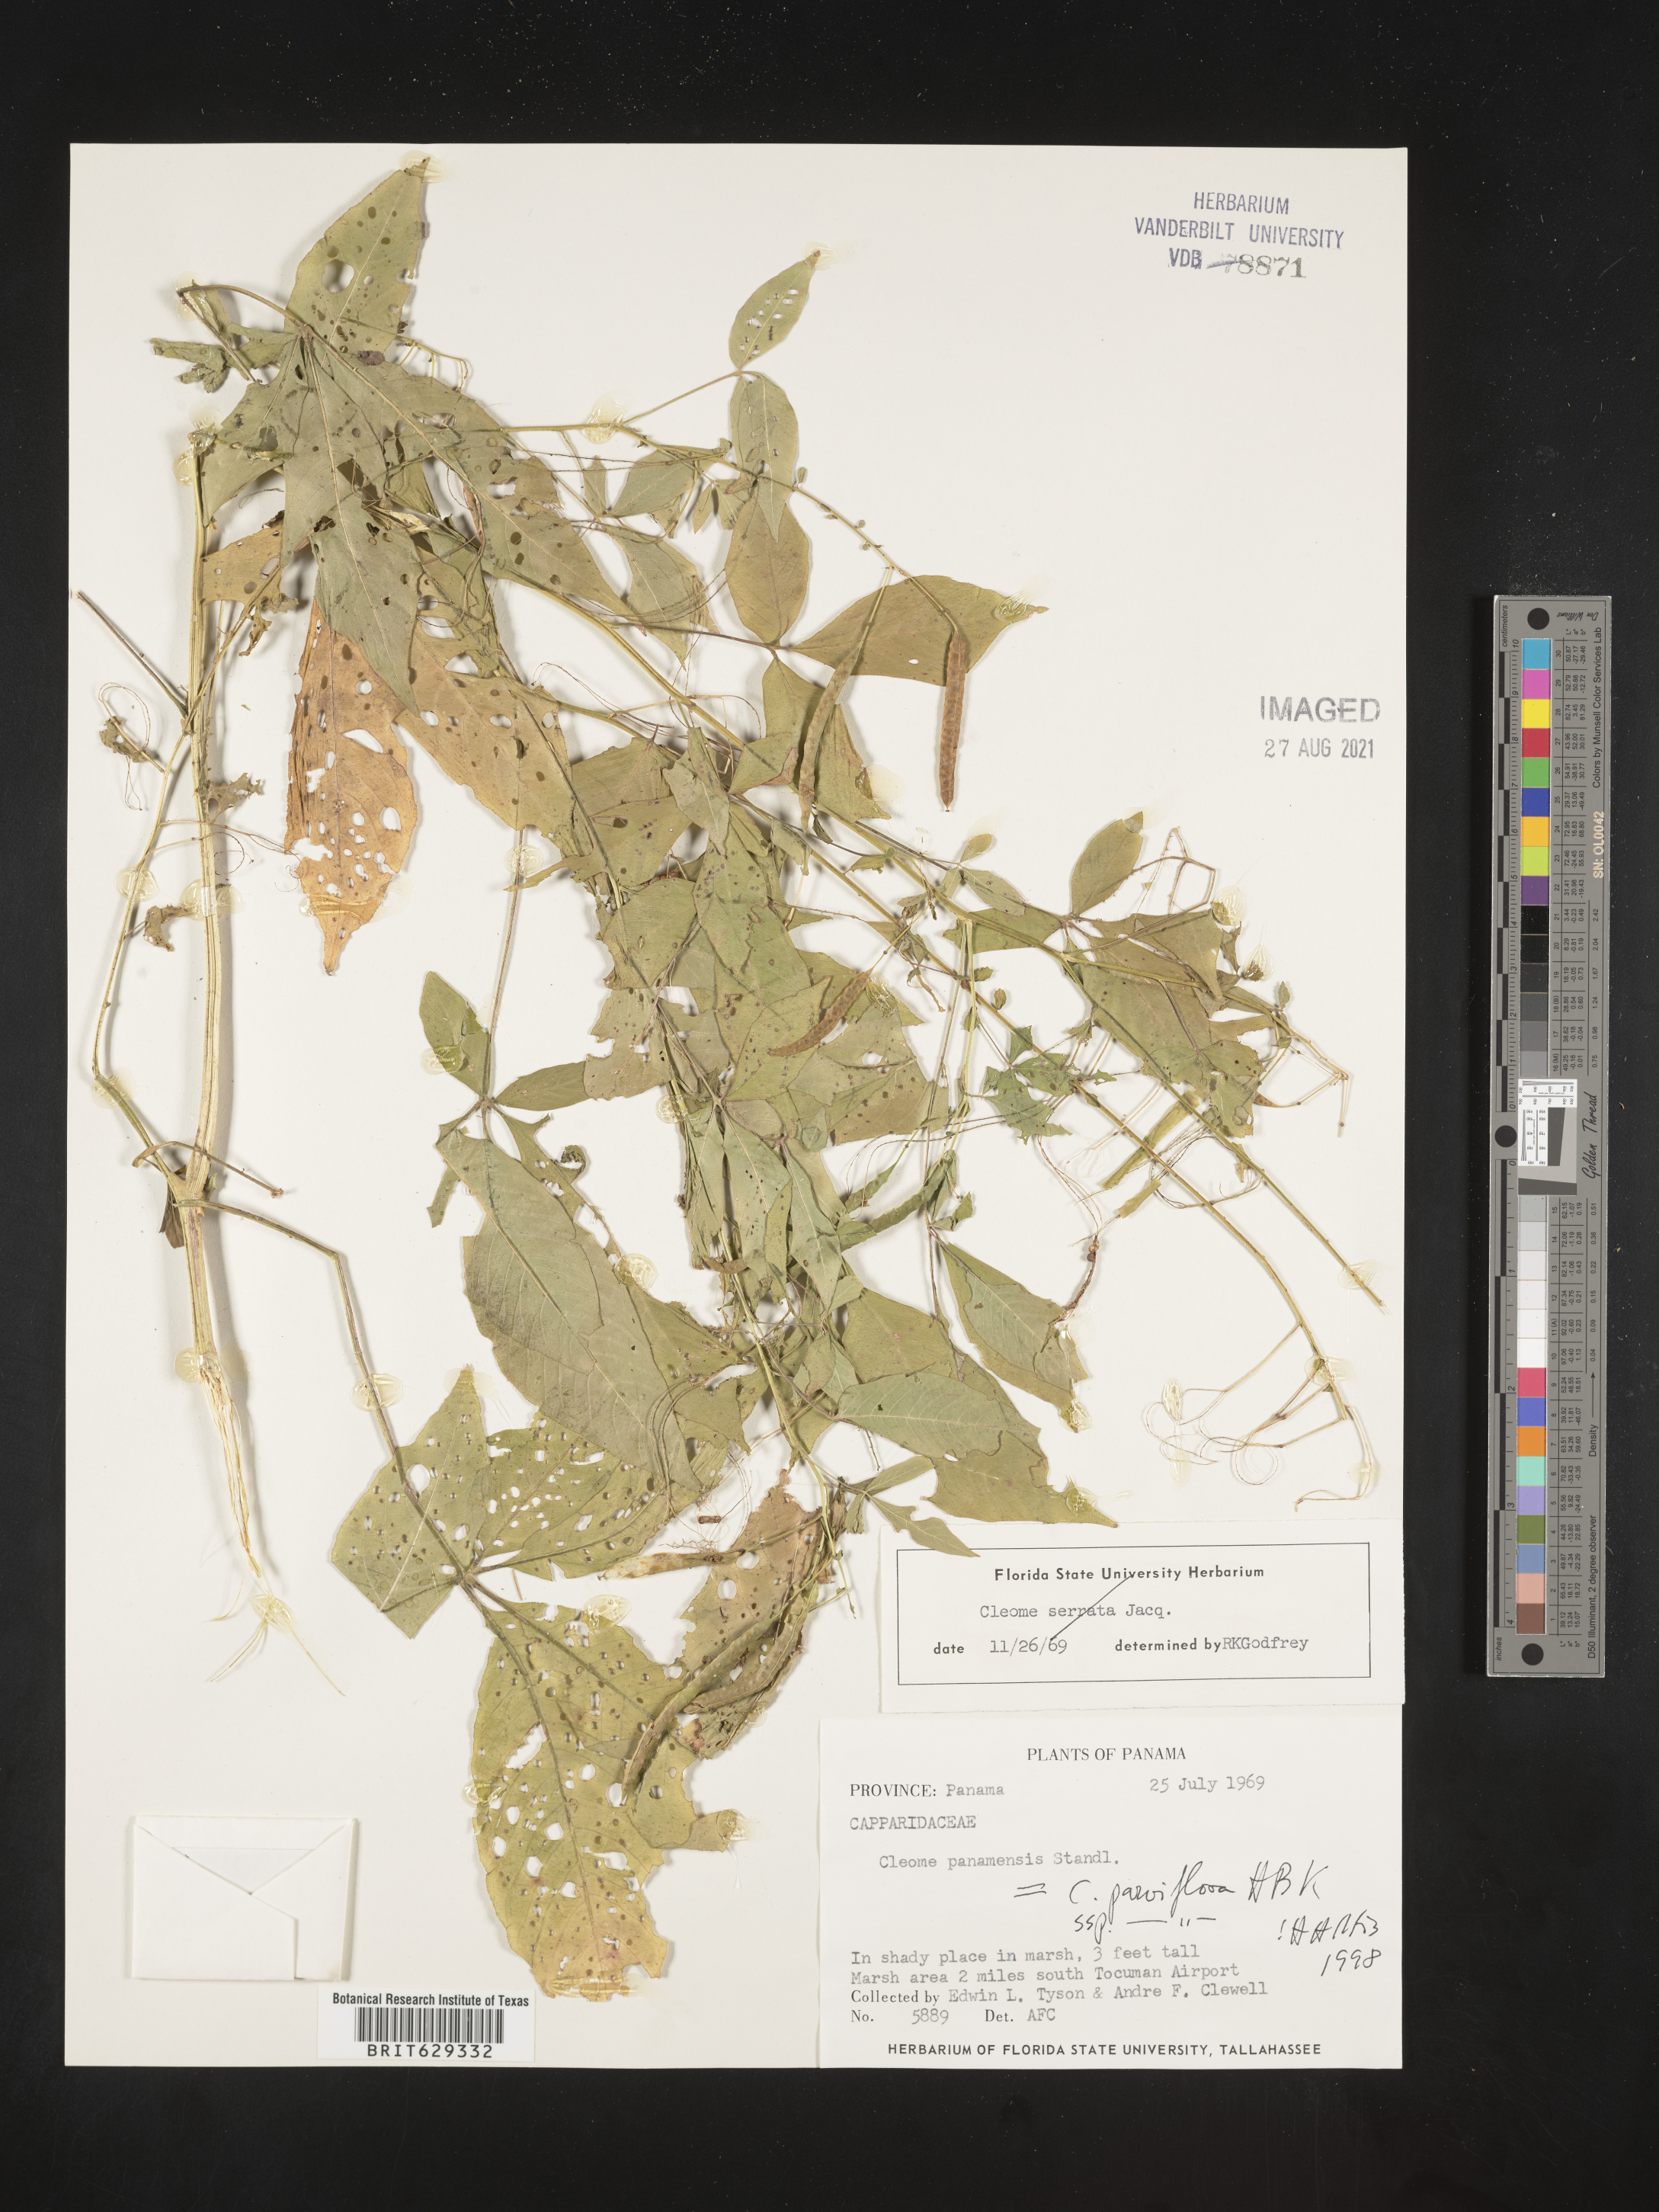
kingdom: Plantae
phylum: Tracheophyta
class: Magnoliopsida
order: Brassicales
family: Cleomaceae
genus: Tarenaya
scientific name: Tarenaya parviflora
